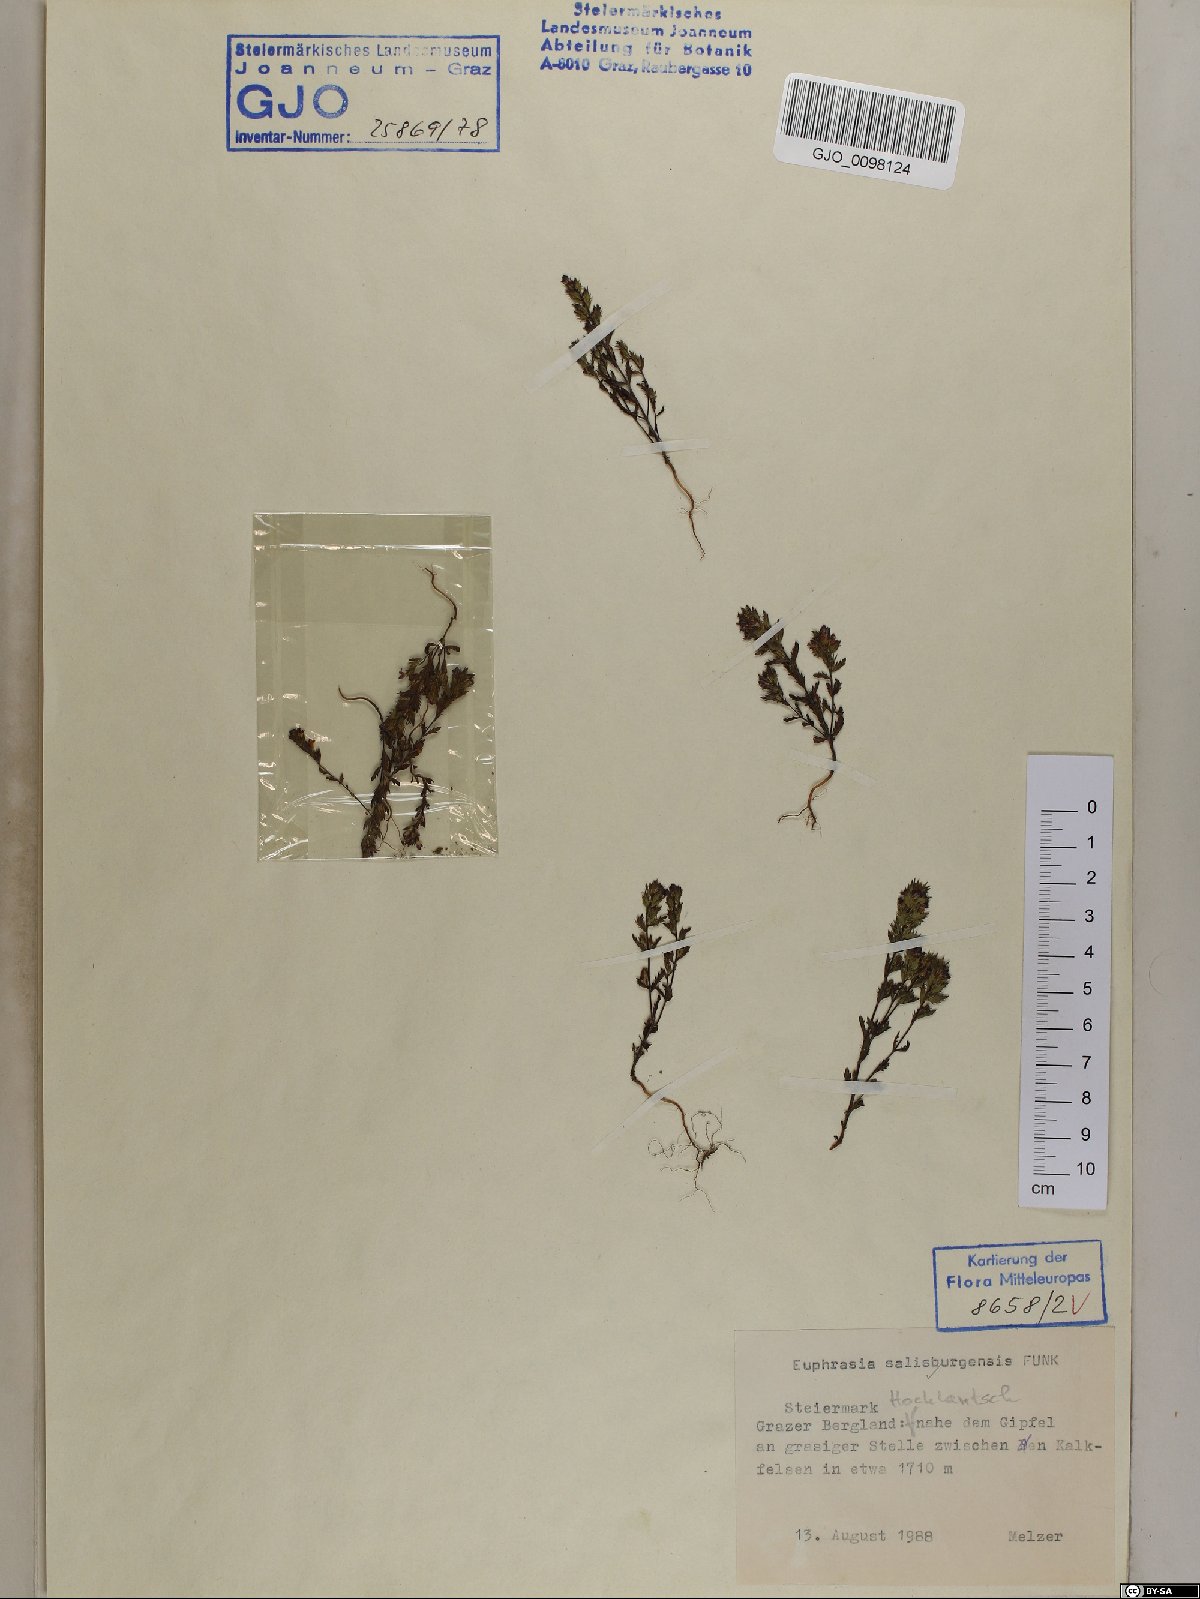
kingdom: Plantae
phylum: Tracheophyta
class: Magnoliopsida
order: Lamiales
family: Orobanchaceae
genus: Euphrasia
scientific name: Euphrasia salisburgensis
